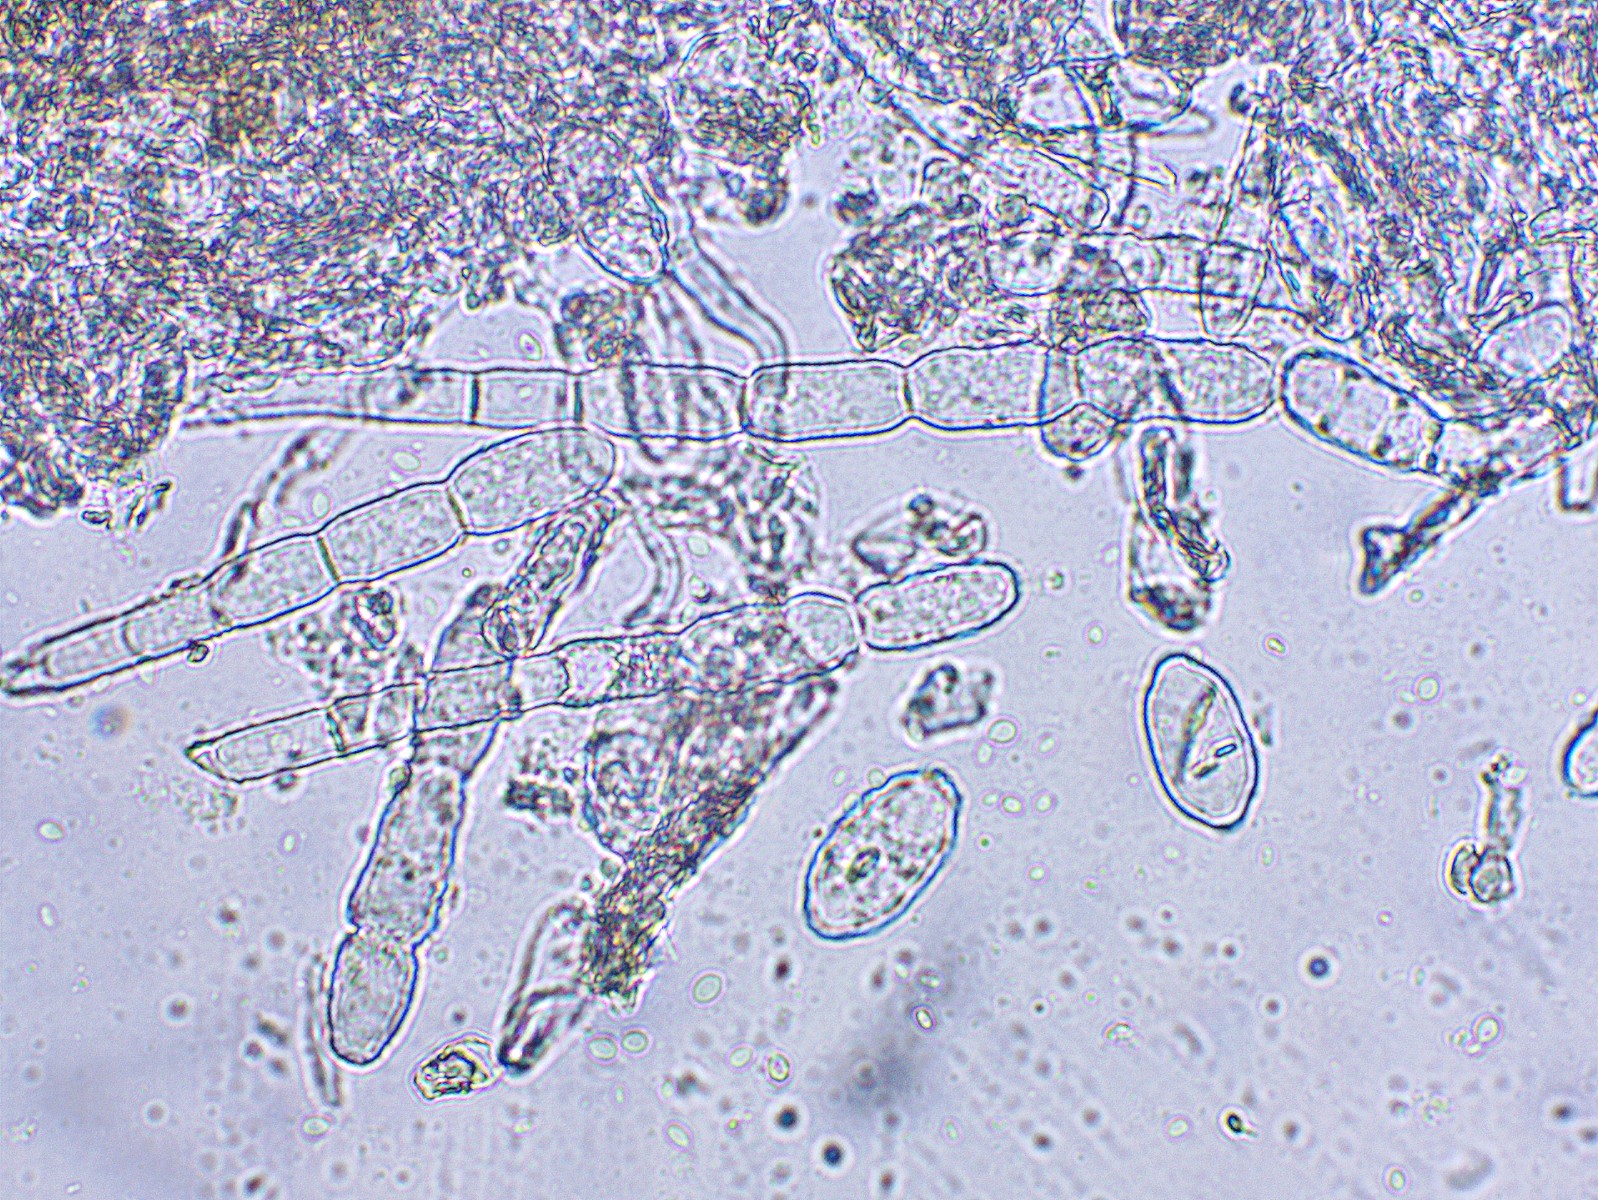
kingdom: Fungi
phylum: Ascomycota
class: Leotiomycetes
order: Helotiales
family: Erysiphaceae
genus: Sawadaea
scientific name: Sawadaea bicornis
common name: Maple mildew
